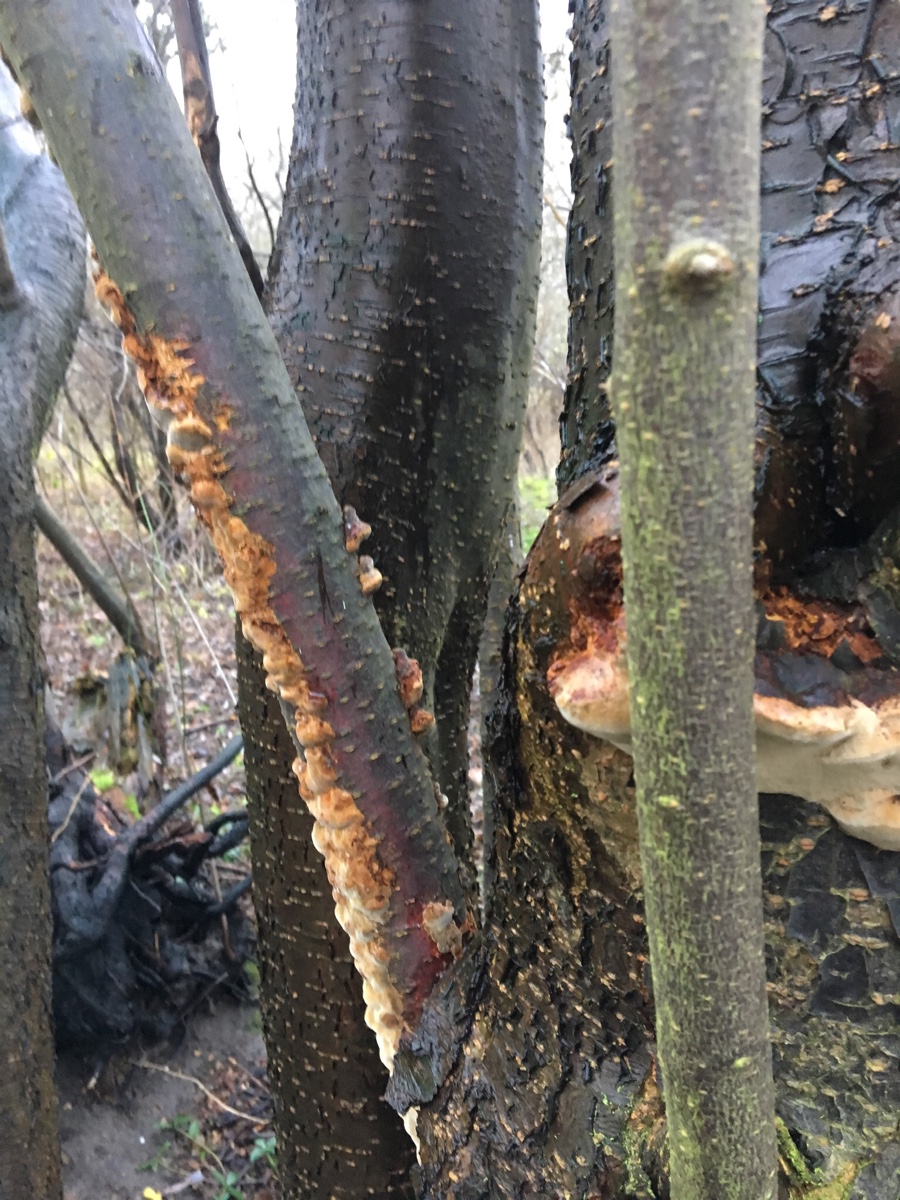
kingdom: Fungi
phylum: Basidiomycota
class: Agaricomycetes
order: Hymenochaetales
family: Hymenochaetaceae
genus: Phellinus
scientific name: Phellinus pomaceus
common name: blomme-ildporesvamp
